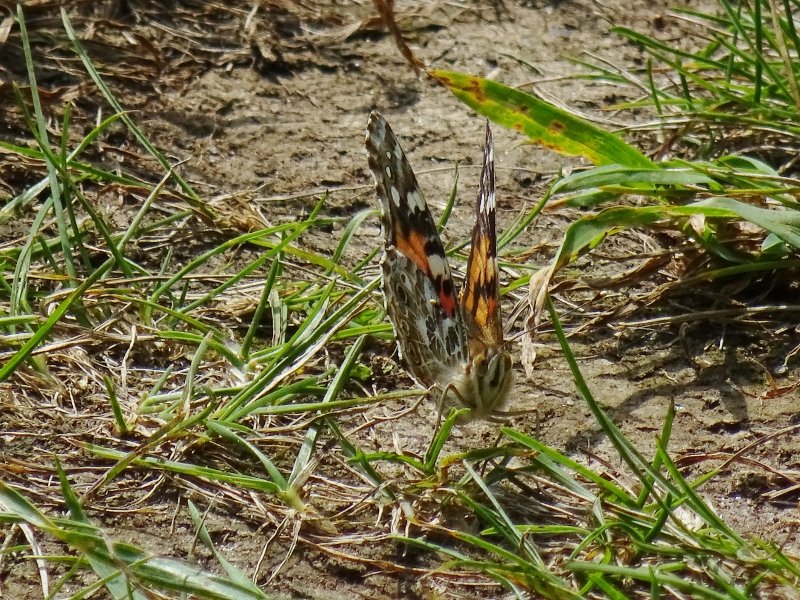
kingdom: Animalia
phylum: Arthropoda
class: Insecta
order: Lepidoptera
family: Nymphalidae
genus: Vanessa
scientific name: Vanessa cardui
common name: Painted Lady
